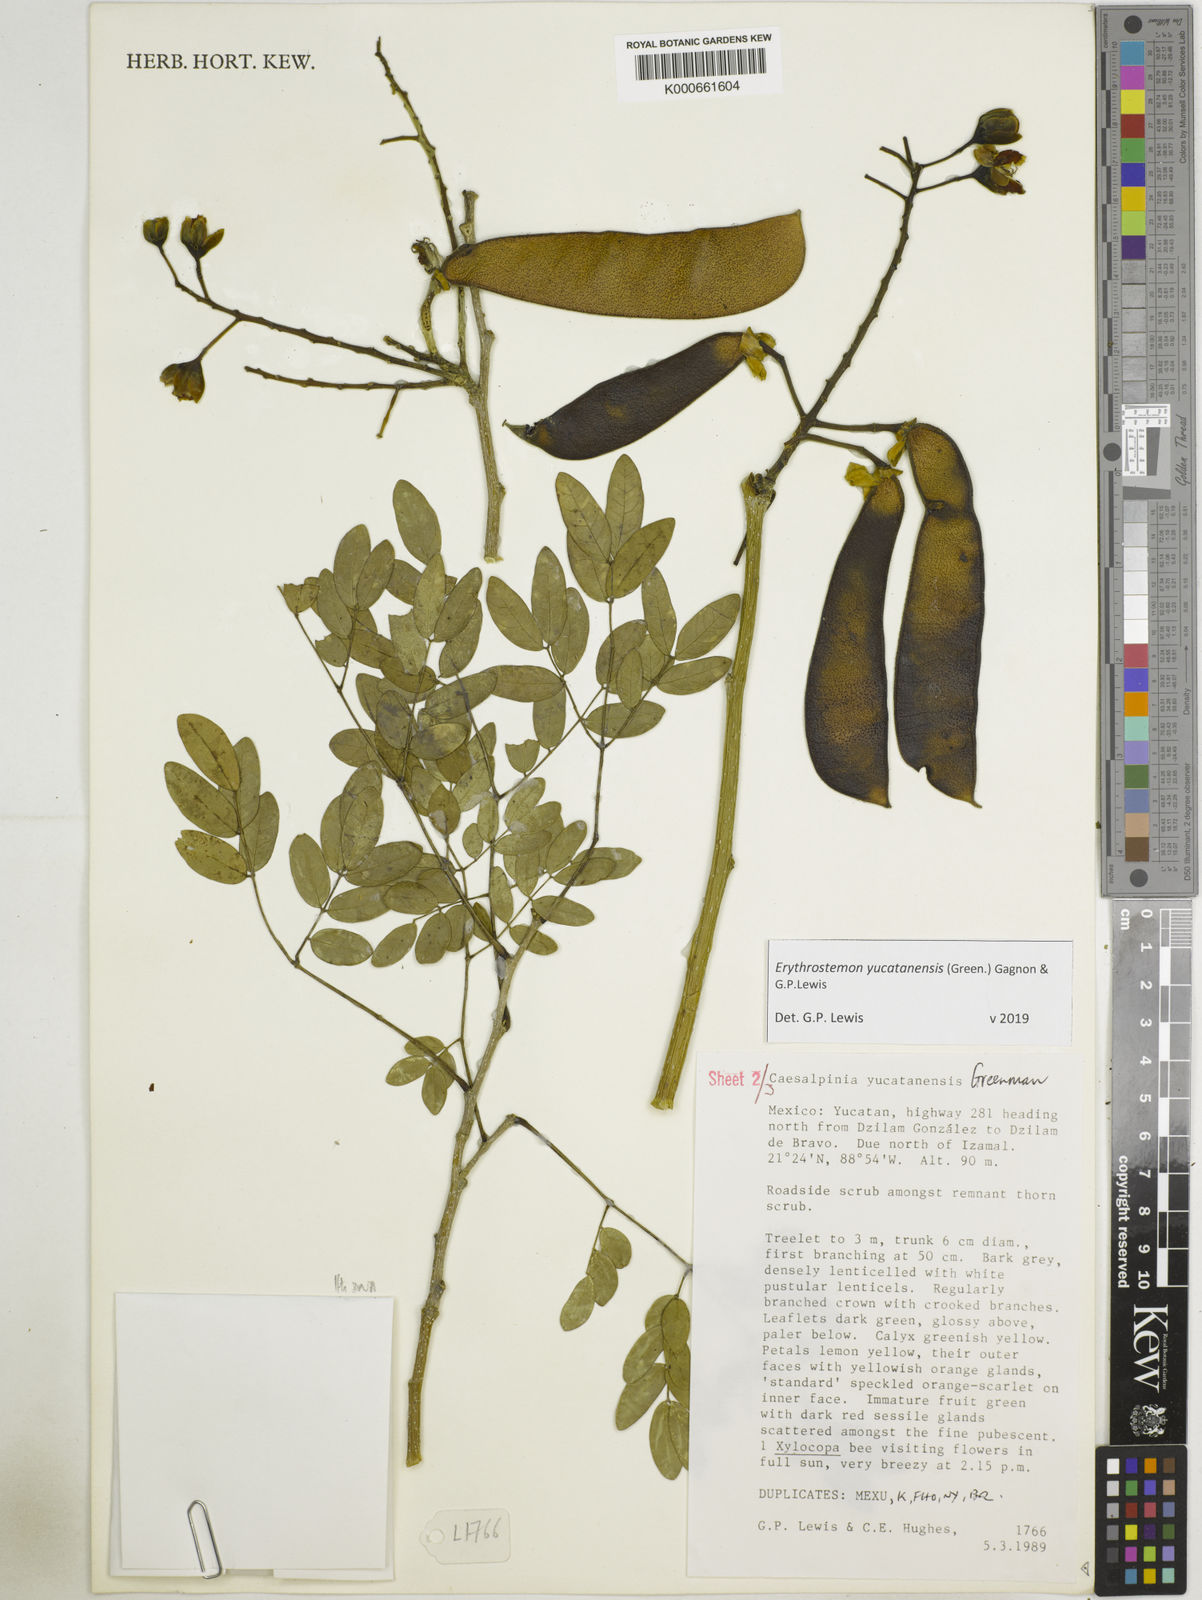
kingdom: Plantae
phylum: Tracheophyta
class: Magnoliopsida
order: Fabales
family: Fabaceae
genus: Caesalpinia
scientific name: Caesalpinia
